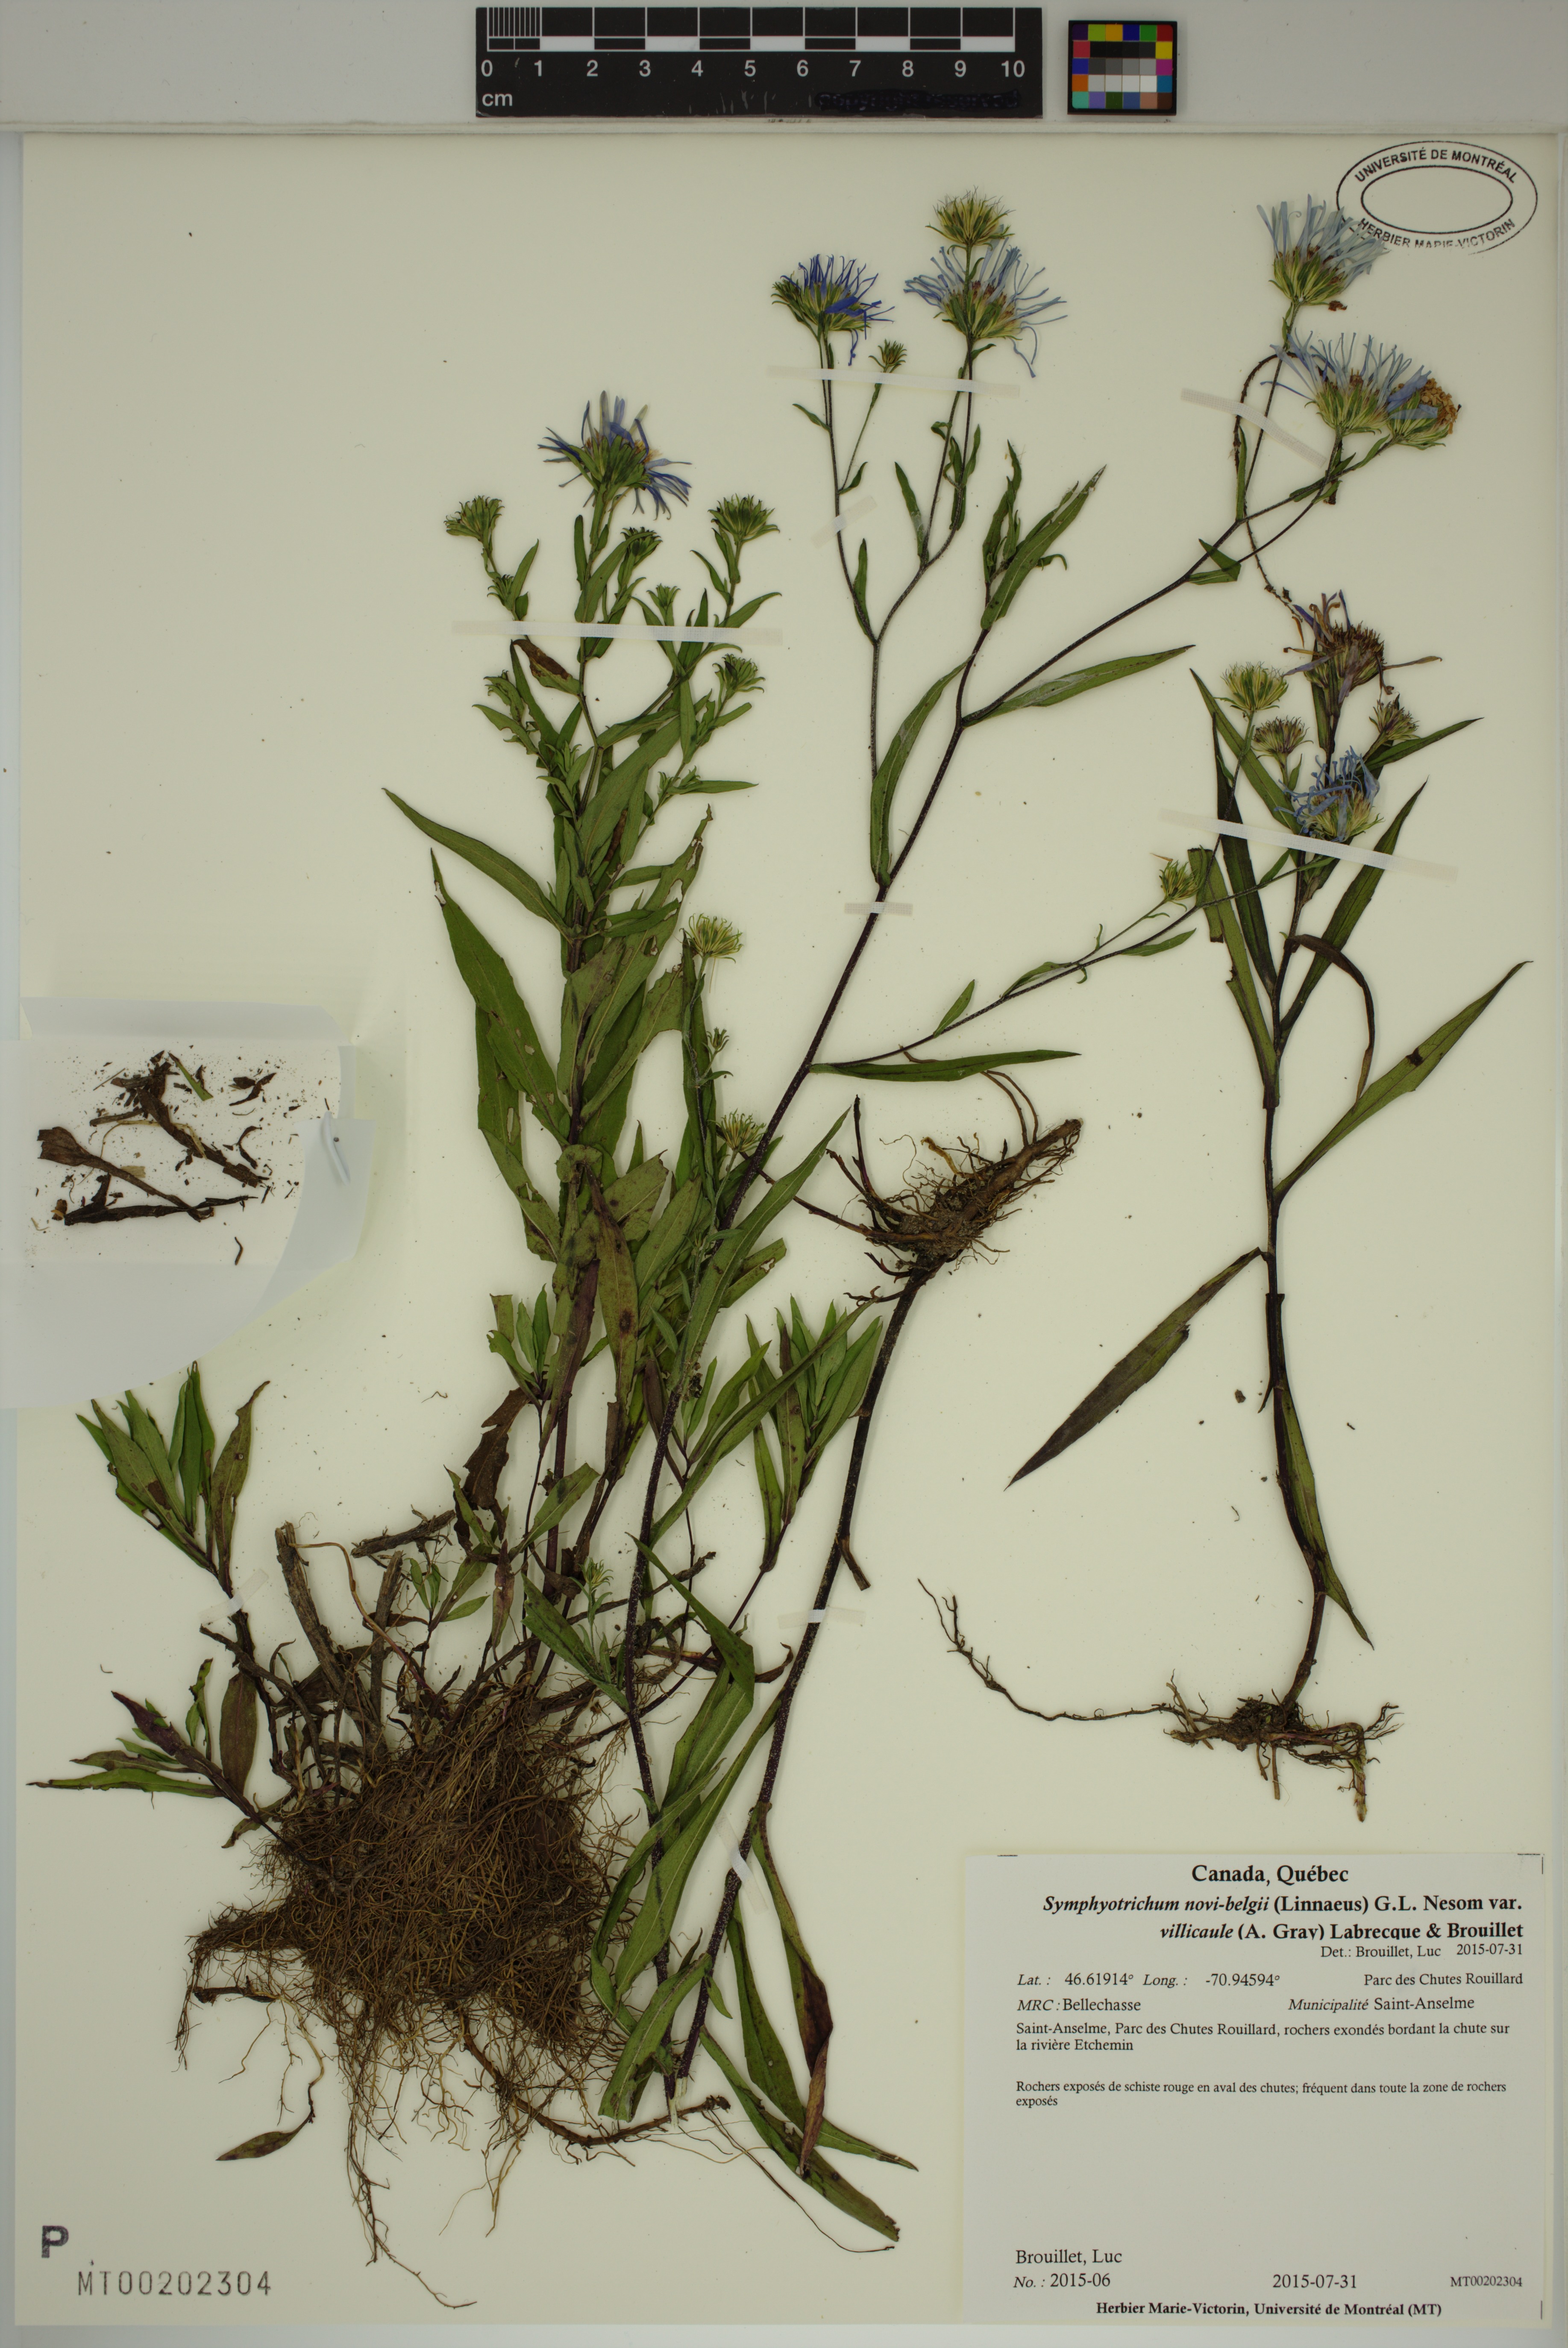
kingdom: Plantae
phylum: Tracheophyta
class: Magnoliopsida
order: Asterales
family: Asteraceae
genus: Symphyotrichum
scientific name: Symphyotrichum novi-belgii
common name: Michaelmas daisy
